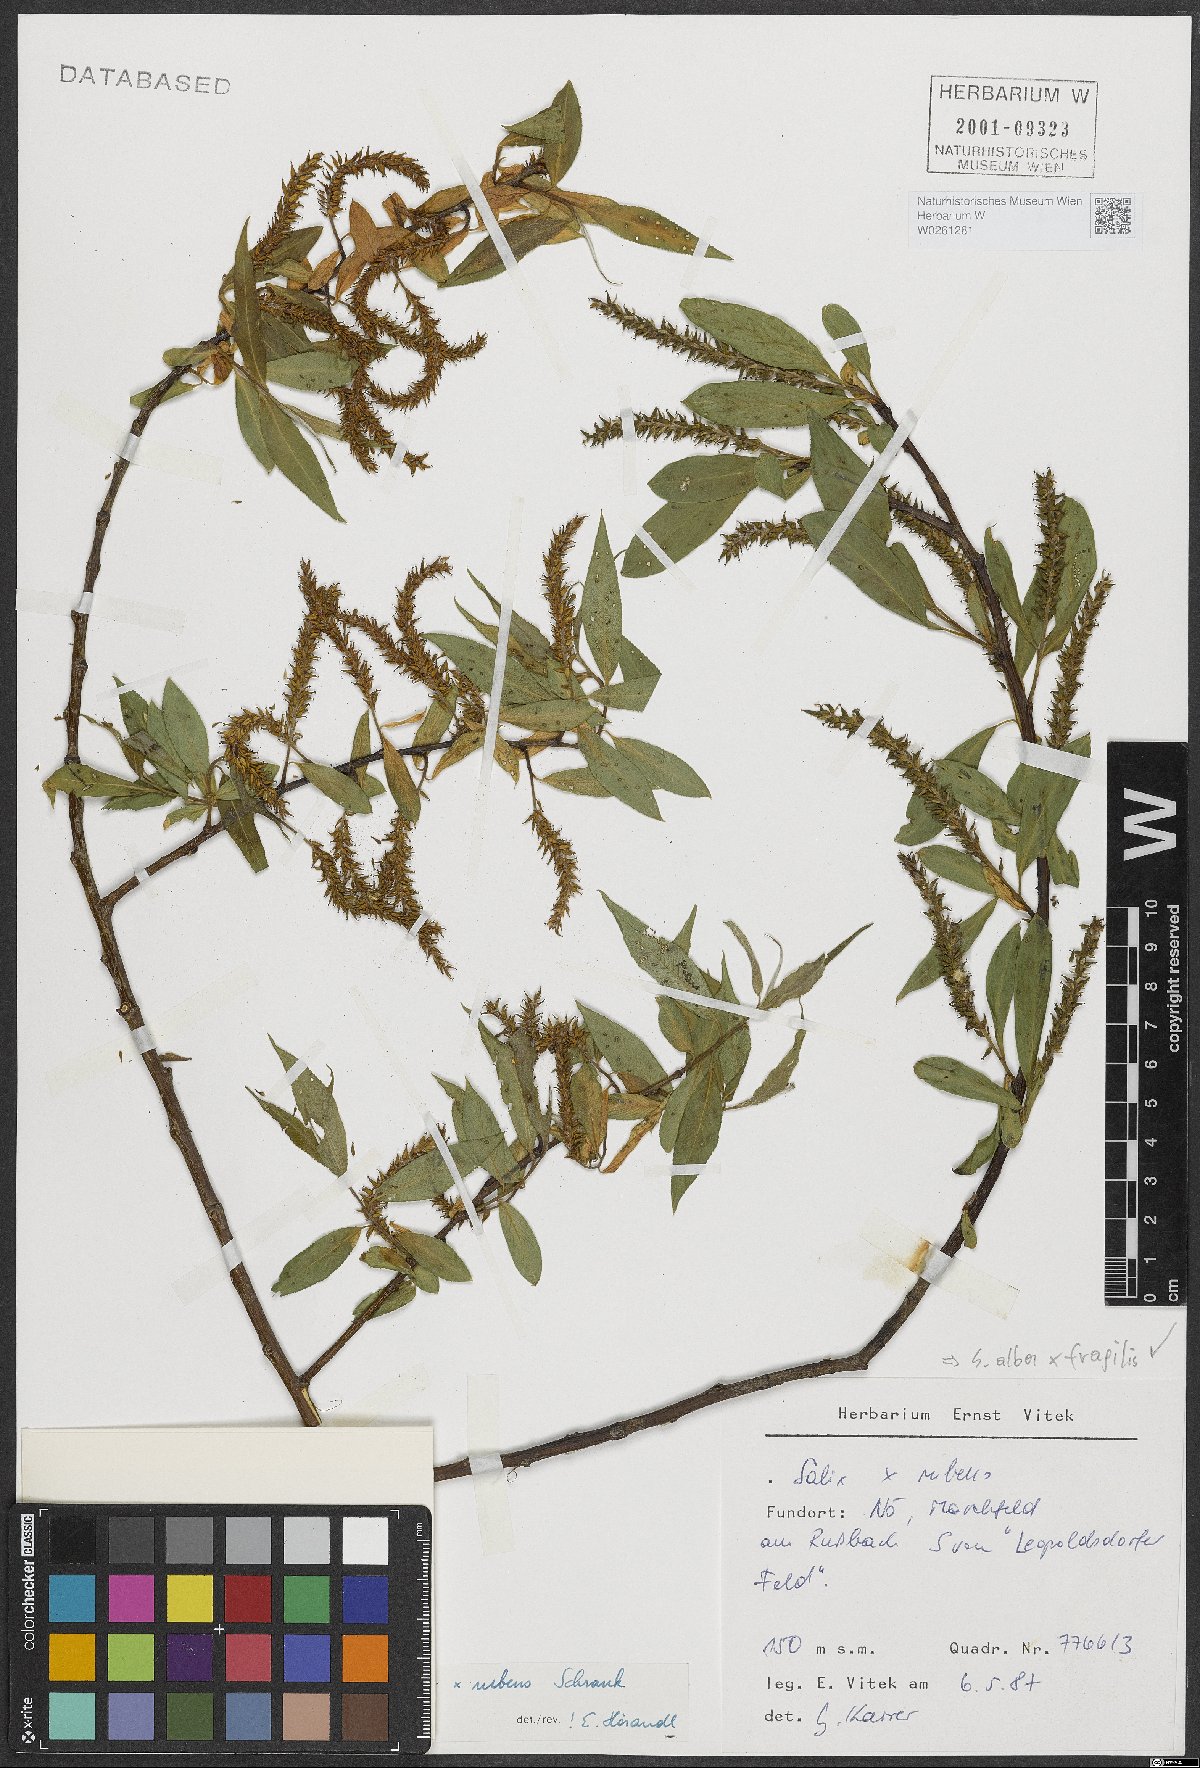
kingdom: Plantae
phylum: Tracheophyta
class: Magnoliopsida
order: Malpighiales
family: Salicaceae
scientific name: Salicaceae
